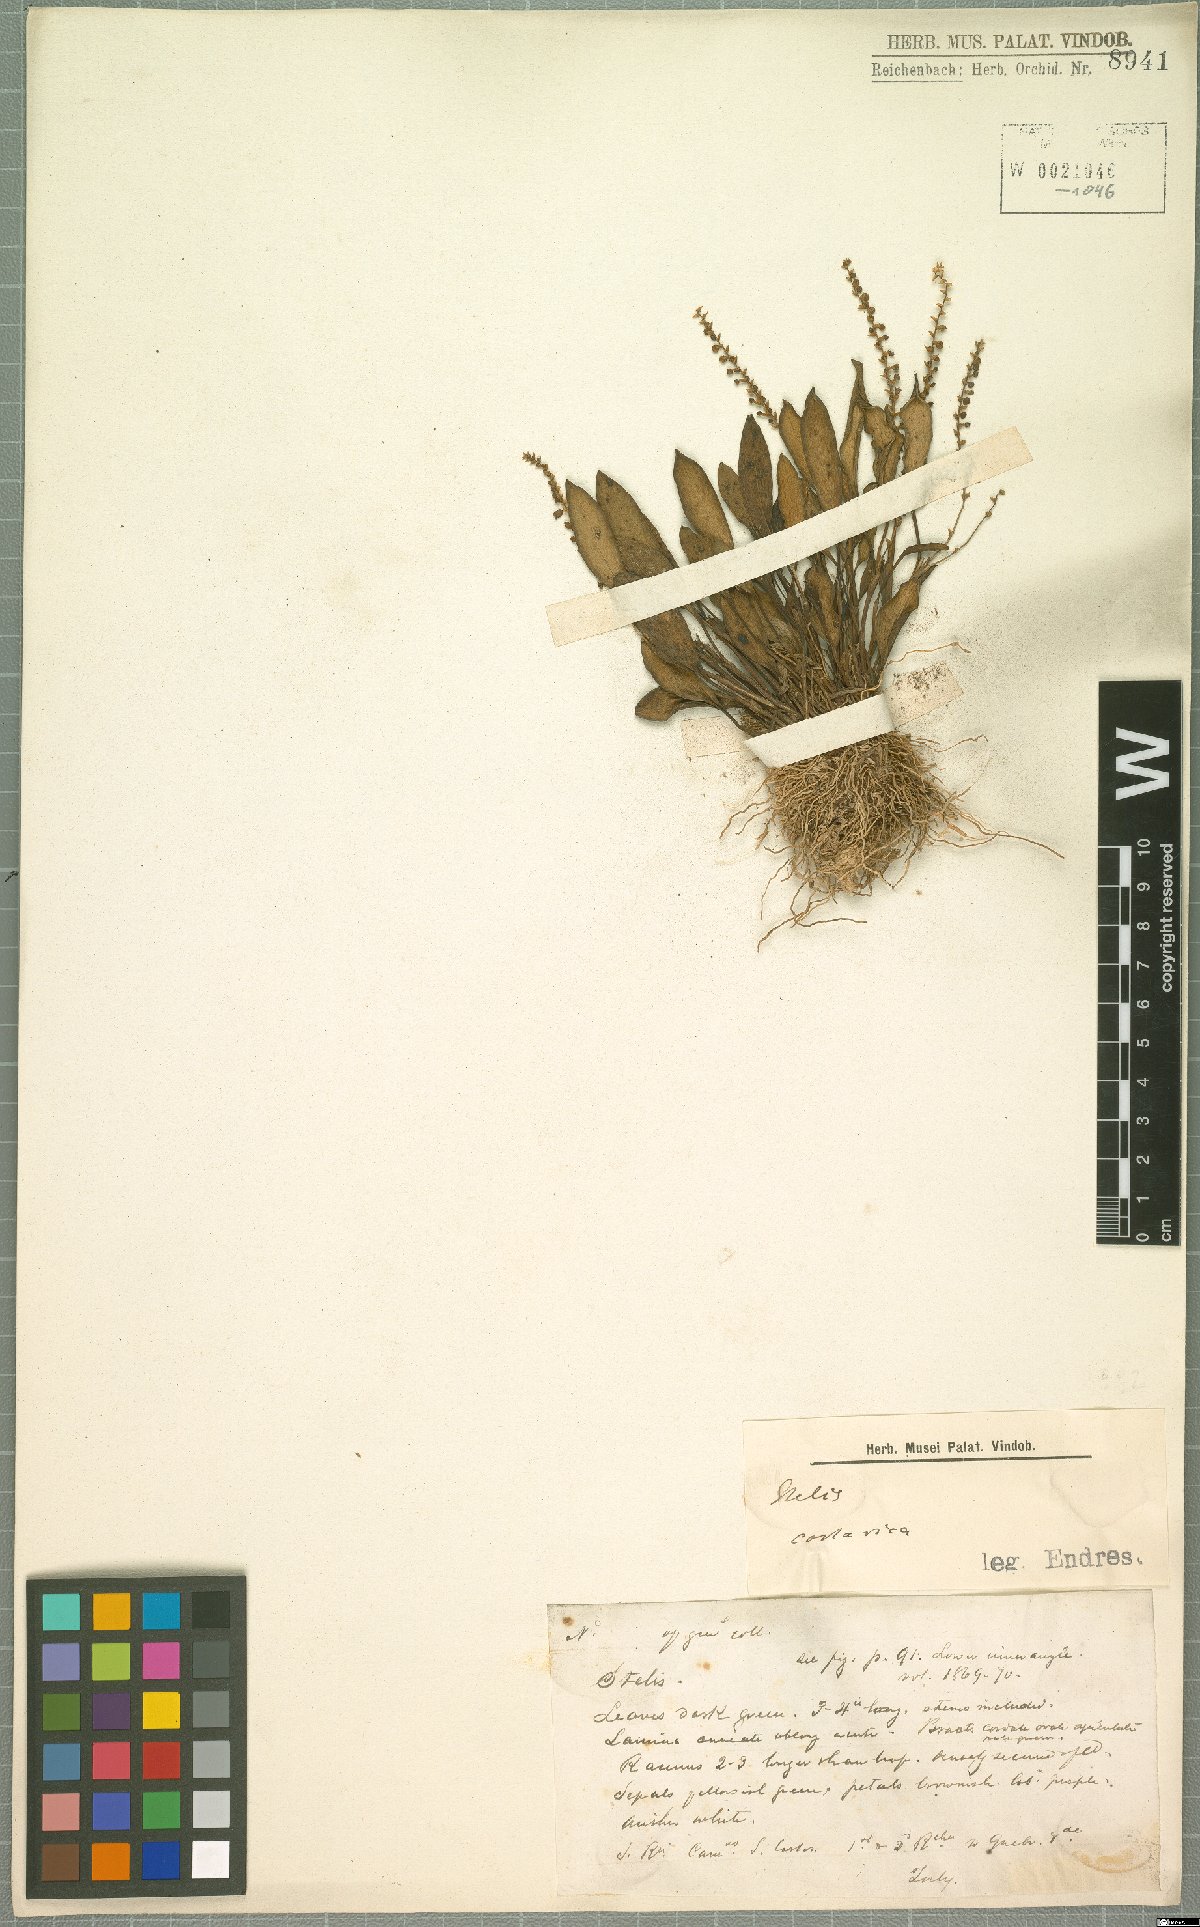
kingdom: Plantae
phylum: Tracheophyta
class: Liliopsida
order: Asparagales
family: Orchidaceae
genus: Stelis
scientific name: Stelis
